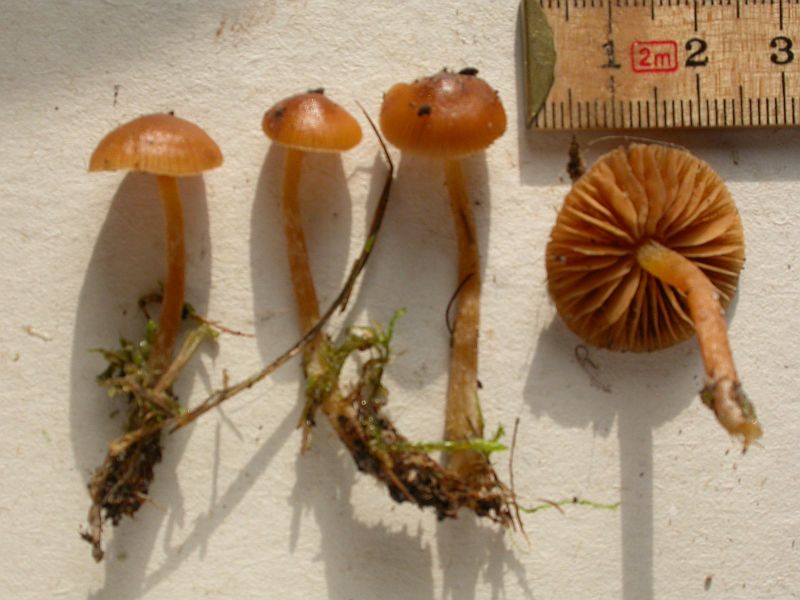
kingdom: Fungi
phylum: Basidiomycota
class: Agaricomycetes
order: Agaricales
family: Hymenogastraceae
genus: Galerina
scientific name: Galerina pumila
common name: honninggul hjelmhat
